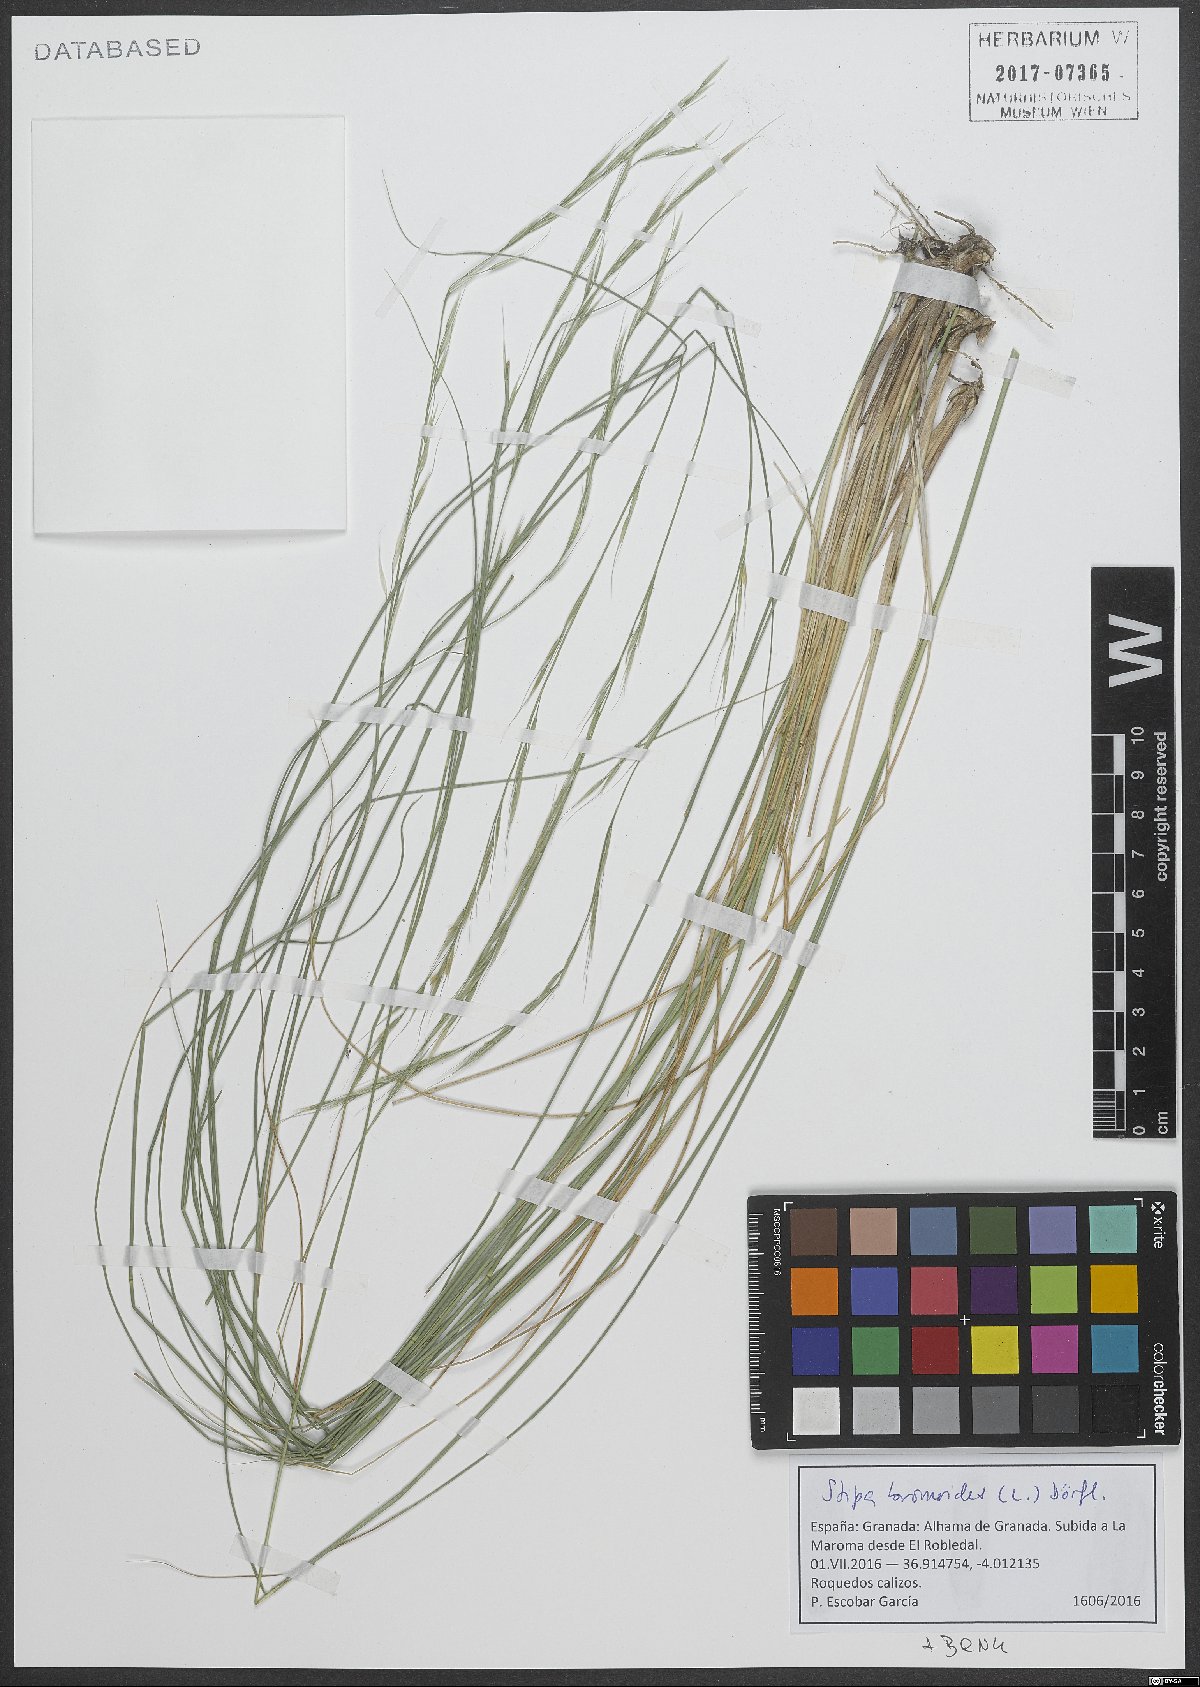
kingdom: Plantae
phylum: Tracheophyta
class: Liliopsida
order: Poales
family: Poaceae
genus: Achnatherum
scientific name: Achnatherum bromoides
